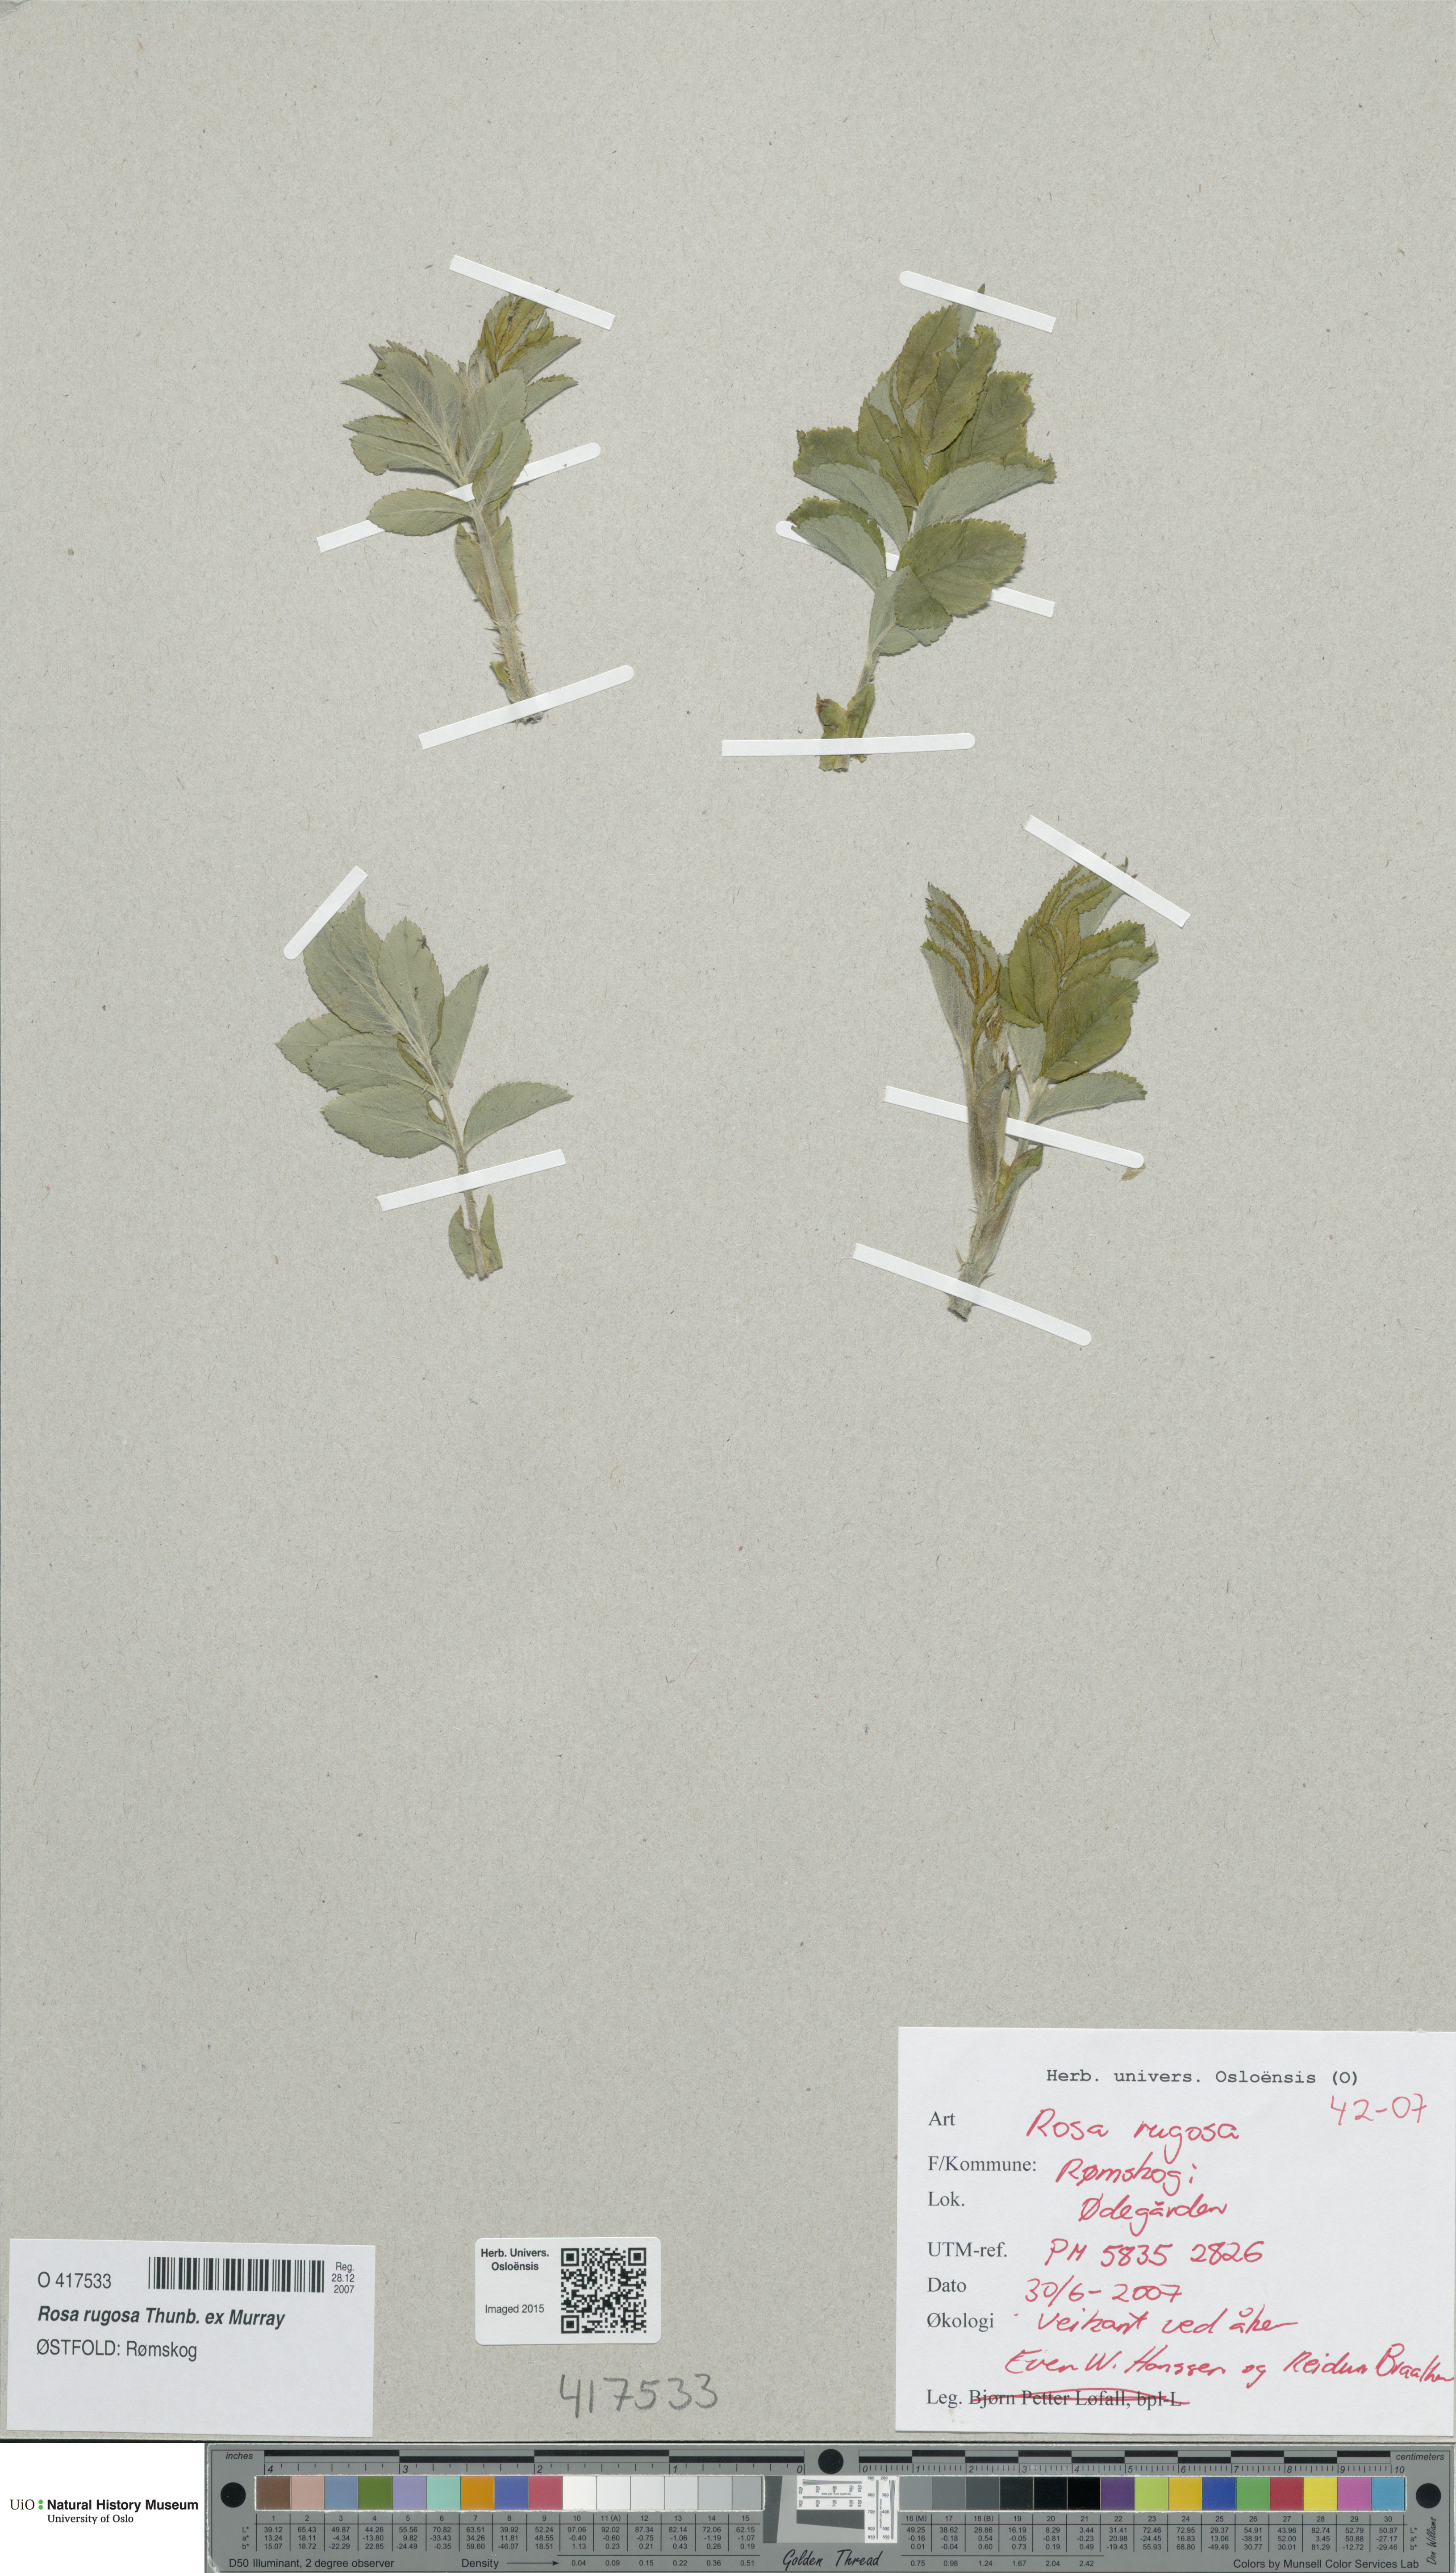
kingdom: Plantae
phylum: Tracheophyta
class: Magnoliopsida
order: Rosales
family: Rosaceae
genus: Rosa
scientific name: Rosa rugosa
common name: Japanese rose
